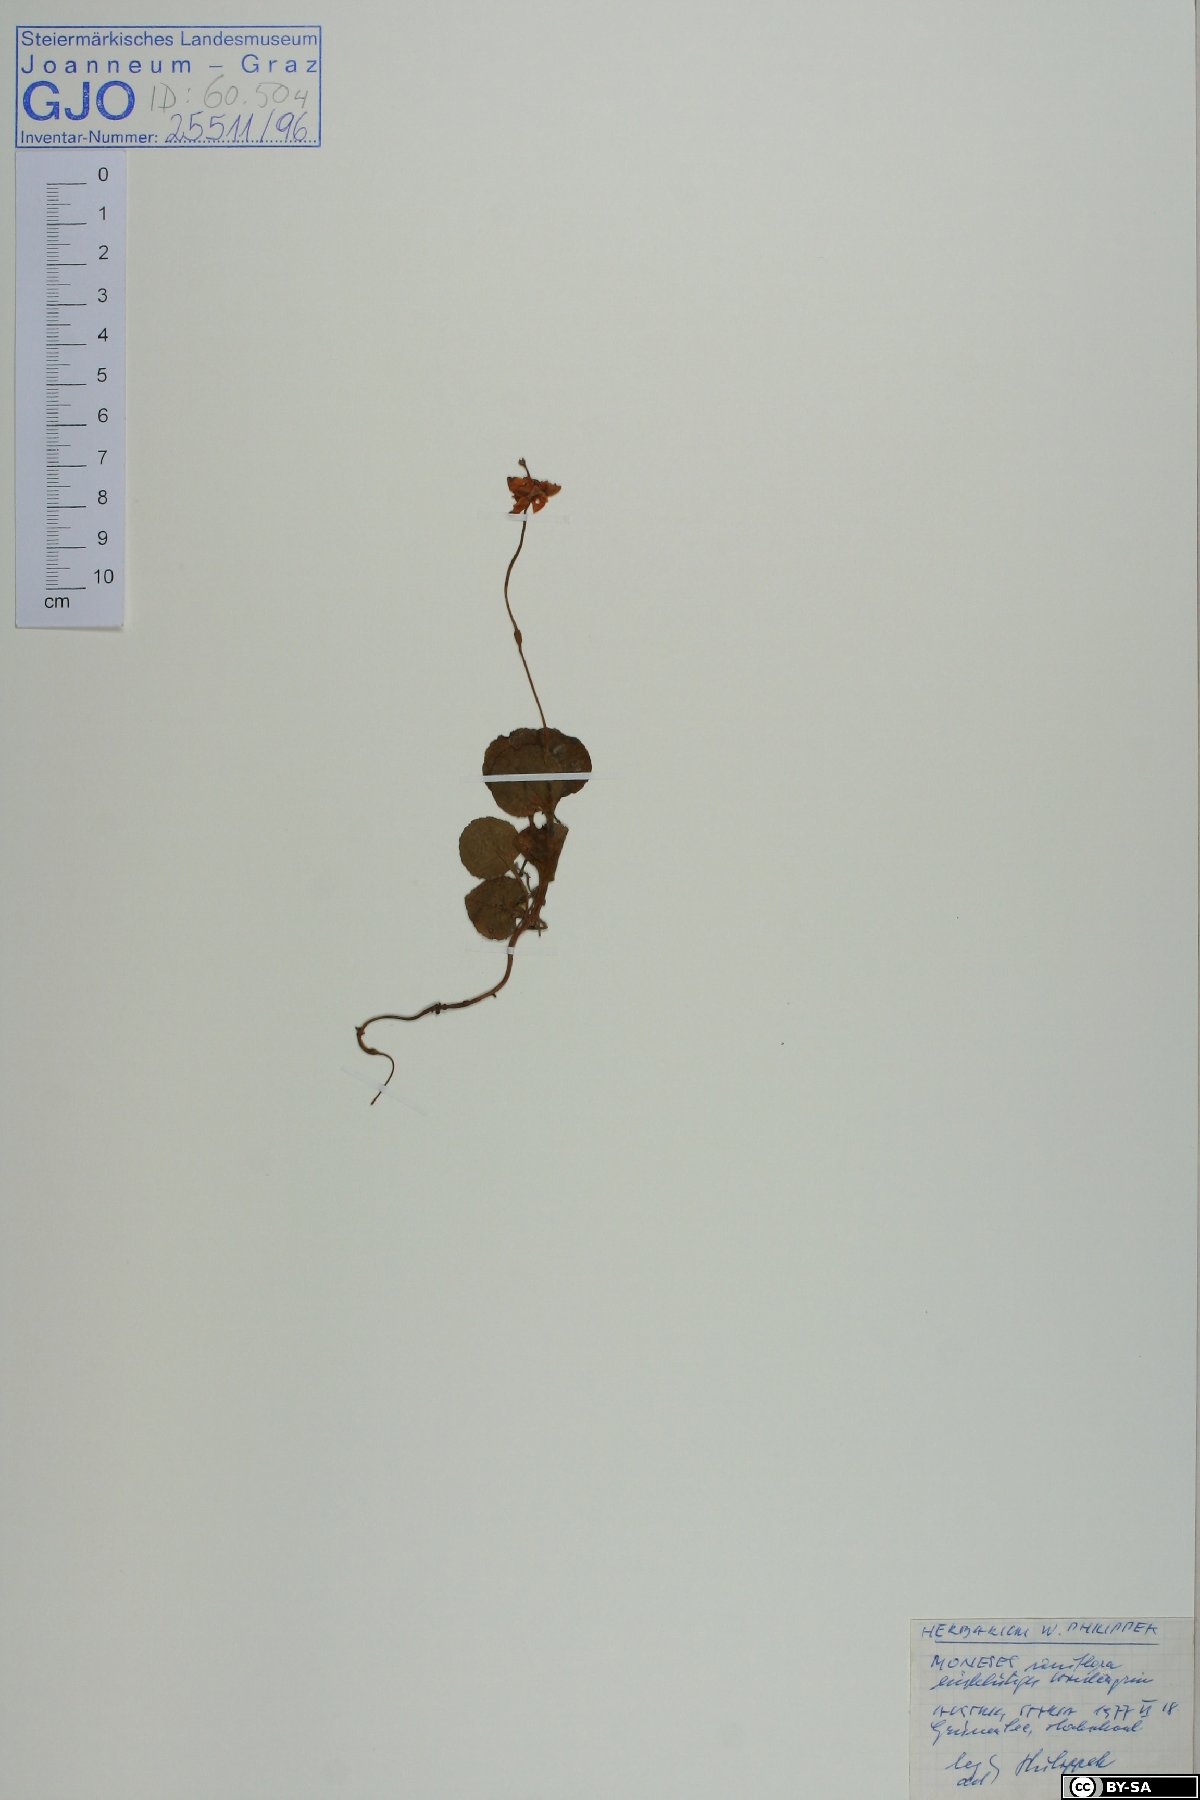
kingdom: Plantae
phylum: Tracheophyta
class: Magnoliopsida
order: Ericales
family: Ericaceae
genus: Moneses
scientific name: Moneses uniflora
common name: One-flowered wintergreen
